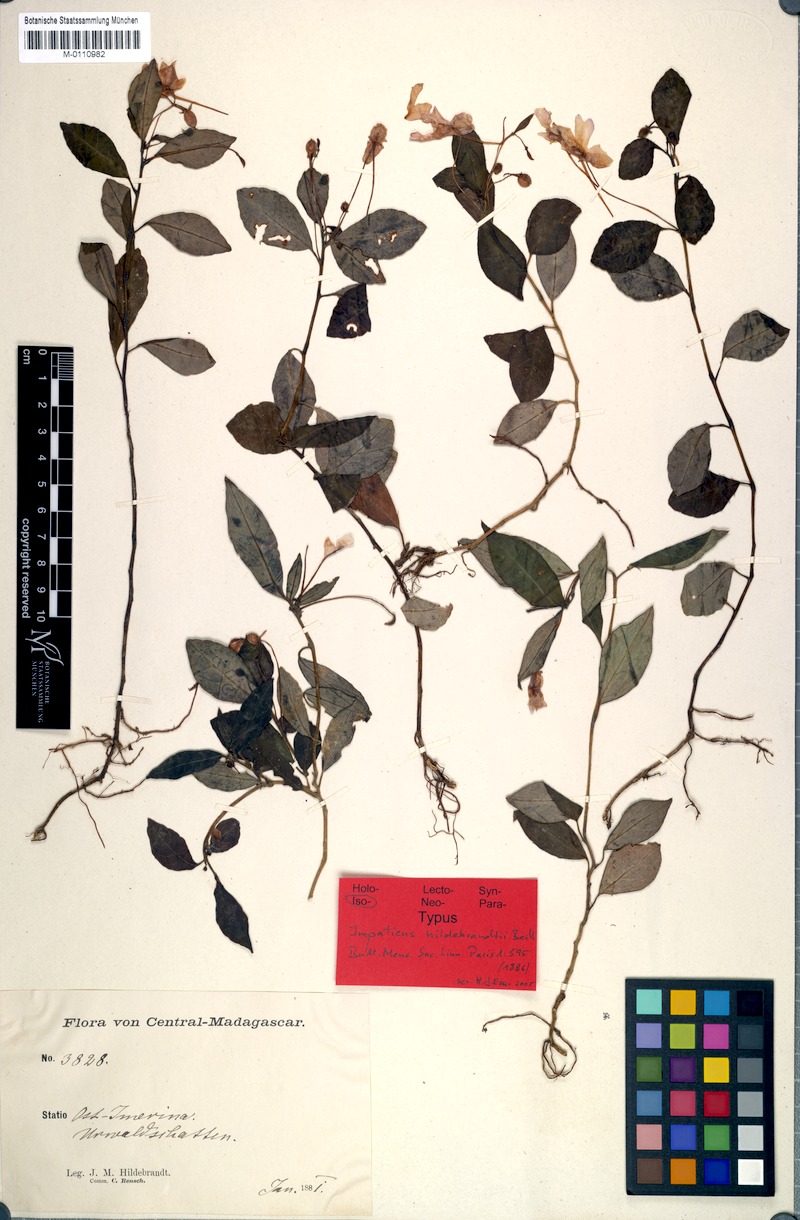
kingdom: Plantae
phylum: Tracheophyta
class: Magnoliopsida
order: Ericales
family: Balsaminaceae
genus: Impatiens
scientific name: Impatiens firmula
